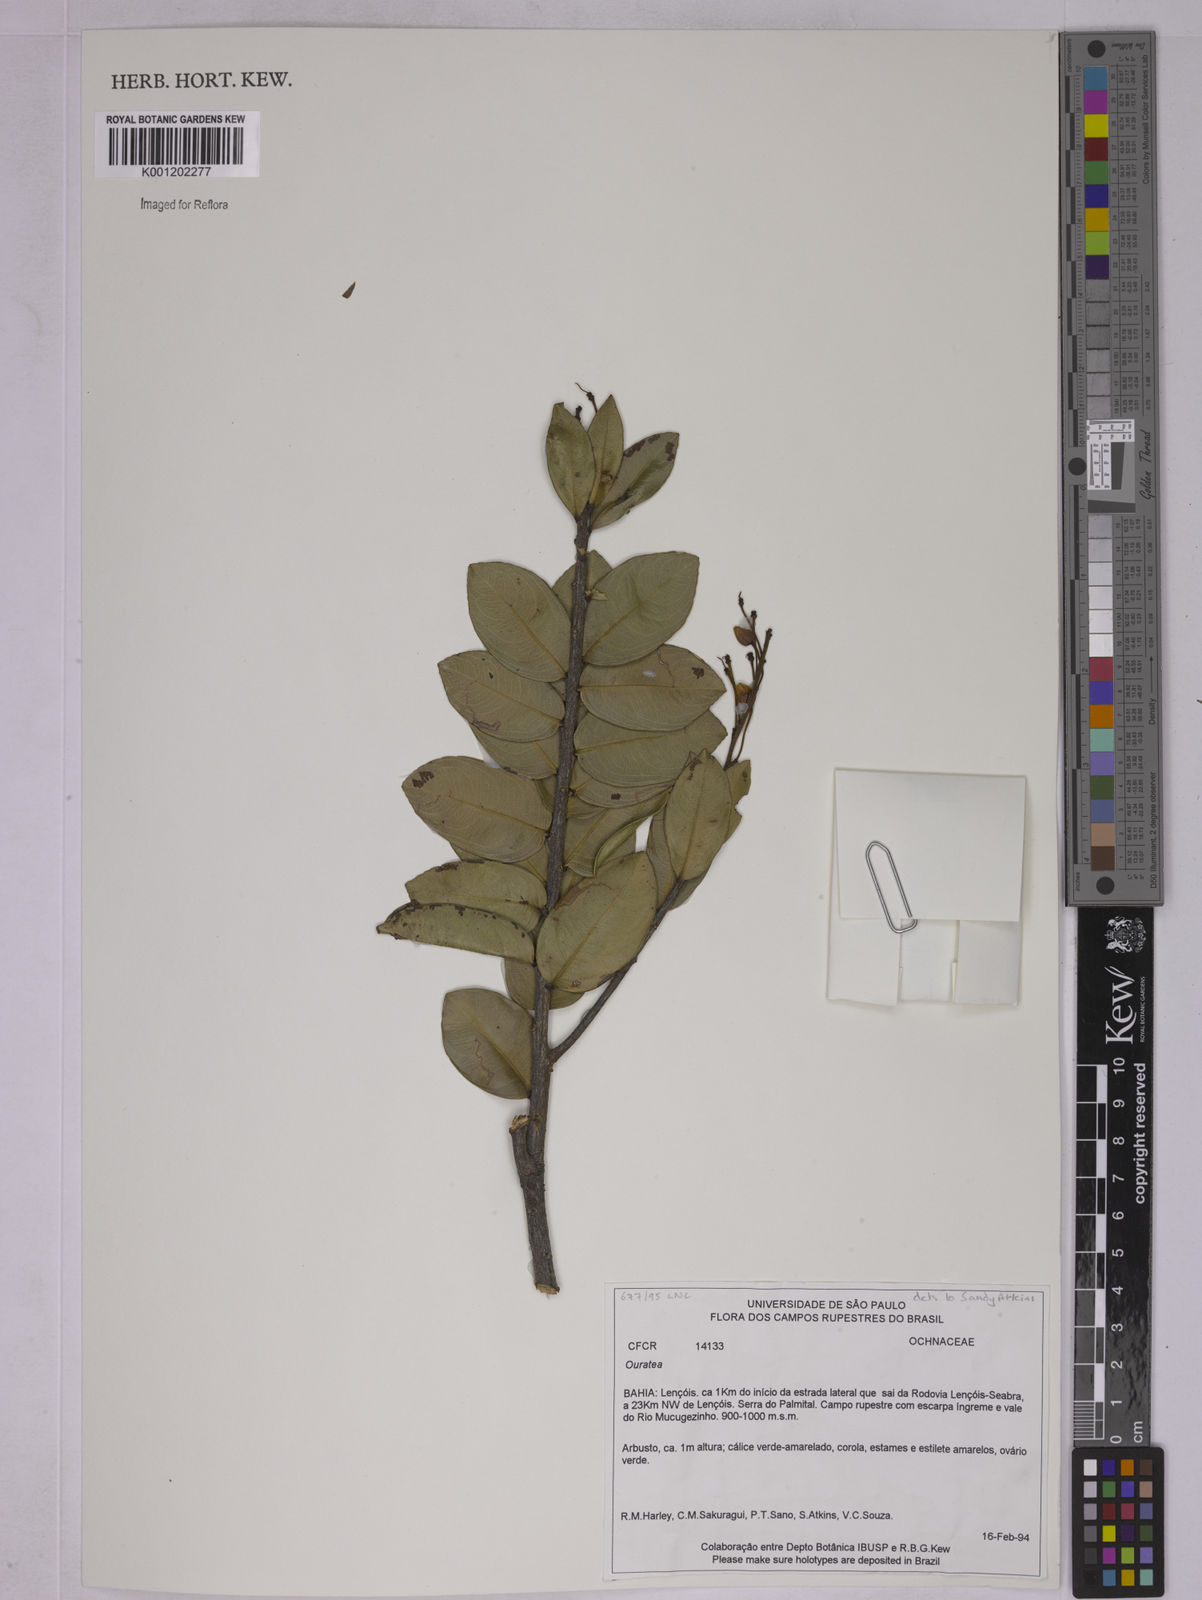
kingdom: Plantae
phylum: Tracheophyta
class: Magnoliopsida
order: Malpighiales
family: Ochnaceae
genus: Ouratea
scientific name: Ouratea
